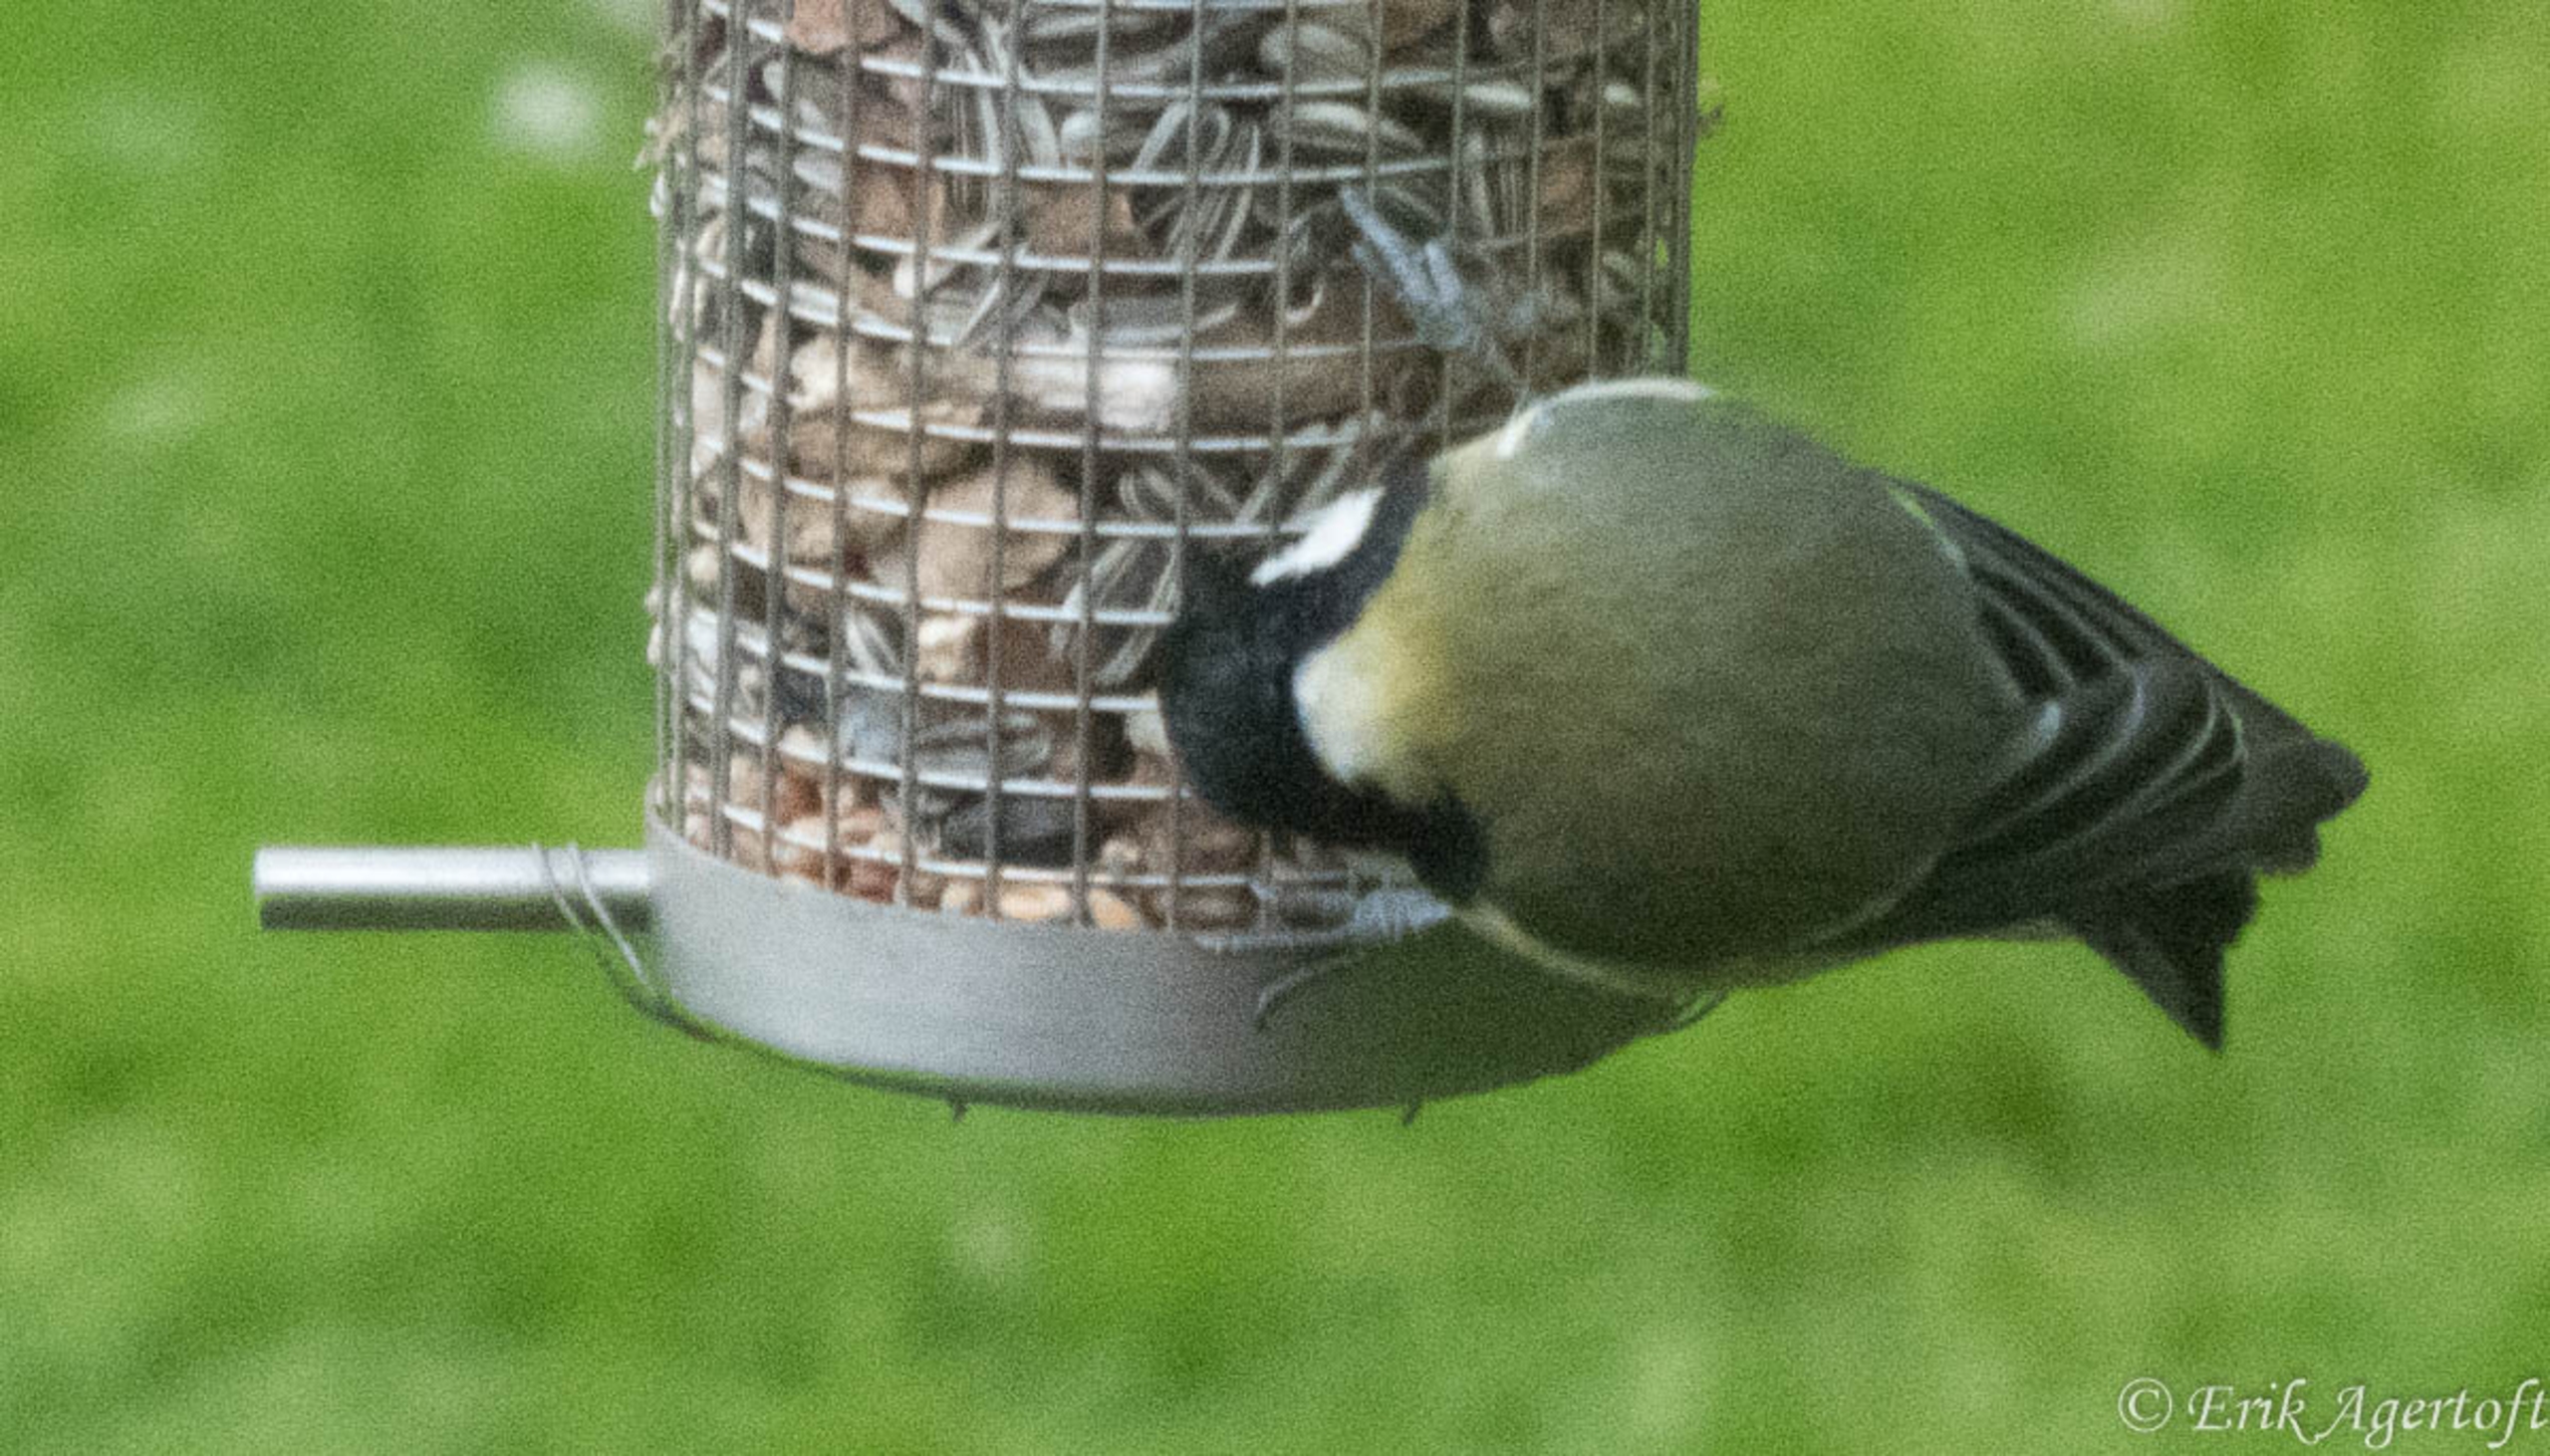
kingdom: Animalia
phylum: Chordata
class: Aves
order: Passeriformes
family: Paridae
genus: Parus
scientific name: Parus major
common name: Musvit
